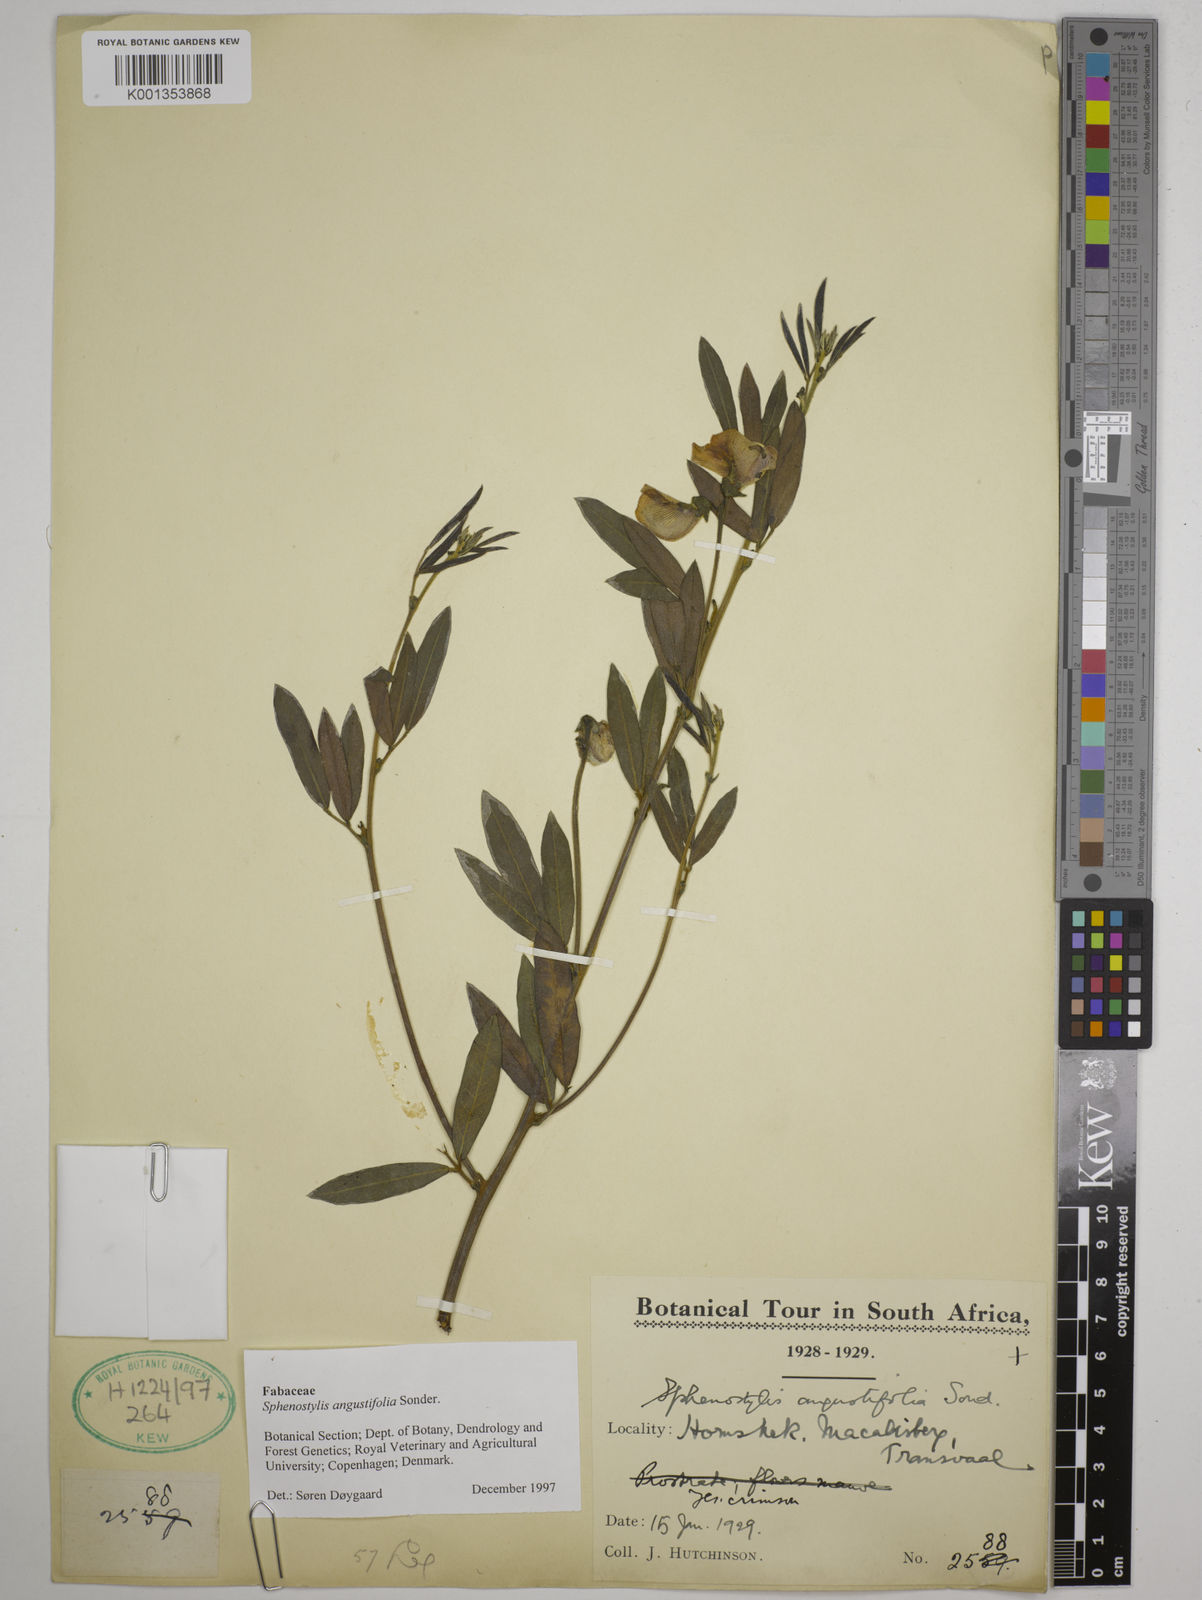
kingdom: Plantae
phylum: Tracheophyta
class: Magnoliopsida
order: Fabales
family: Fabaceae
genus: Sphenostylis
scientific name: Sphenostylis angustifolia
